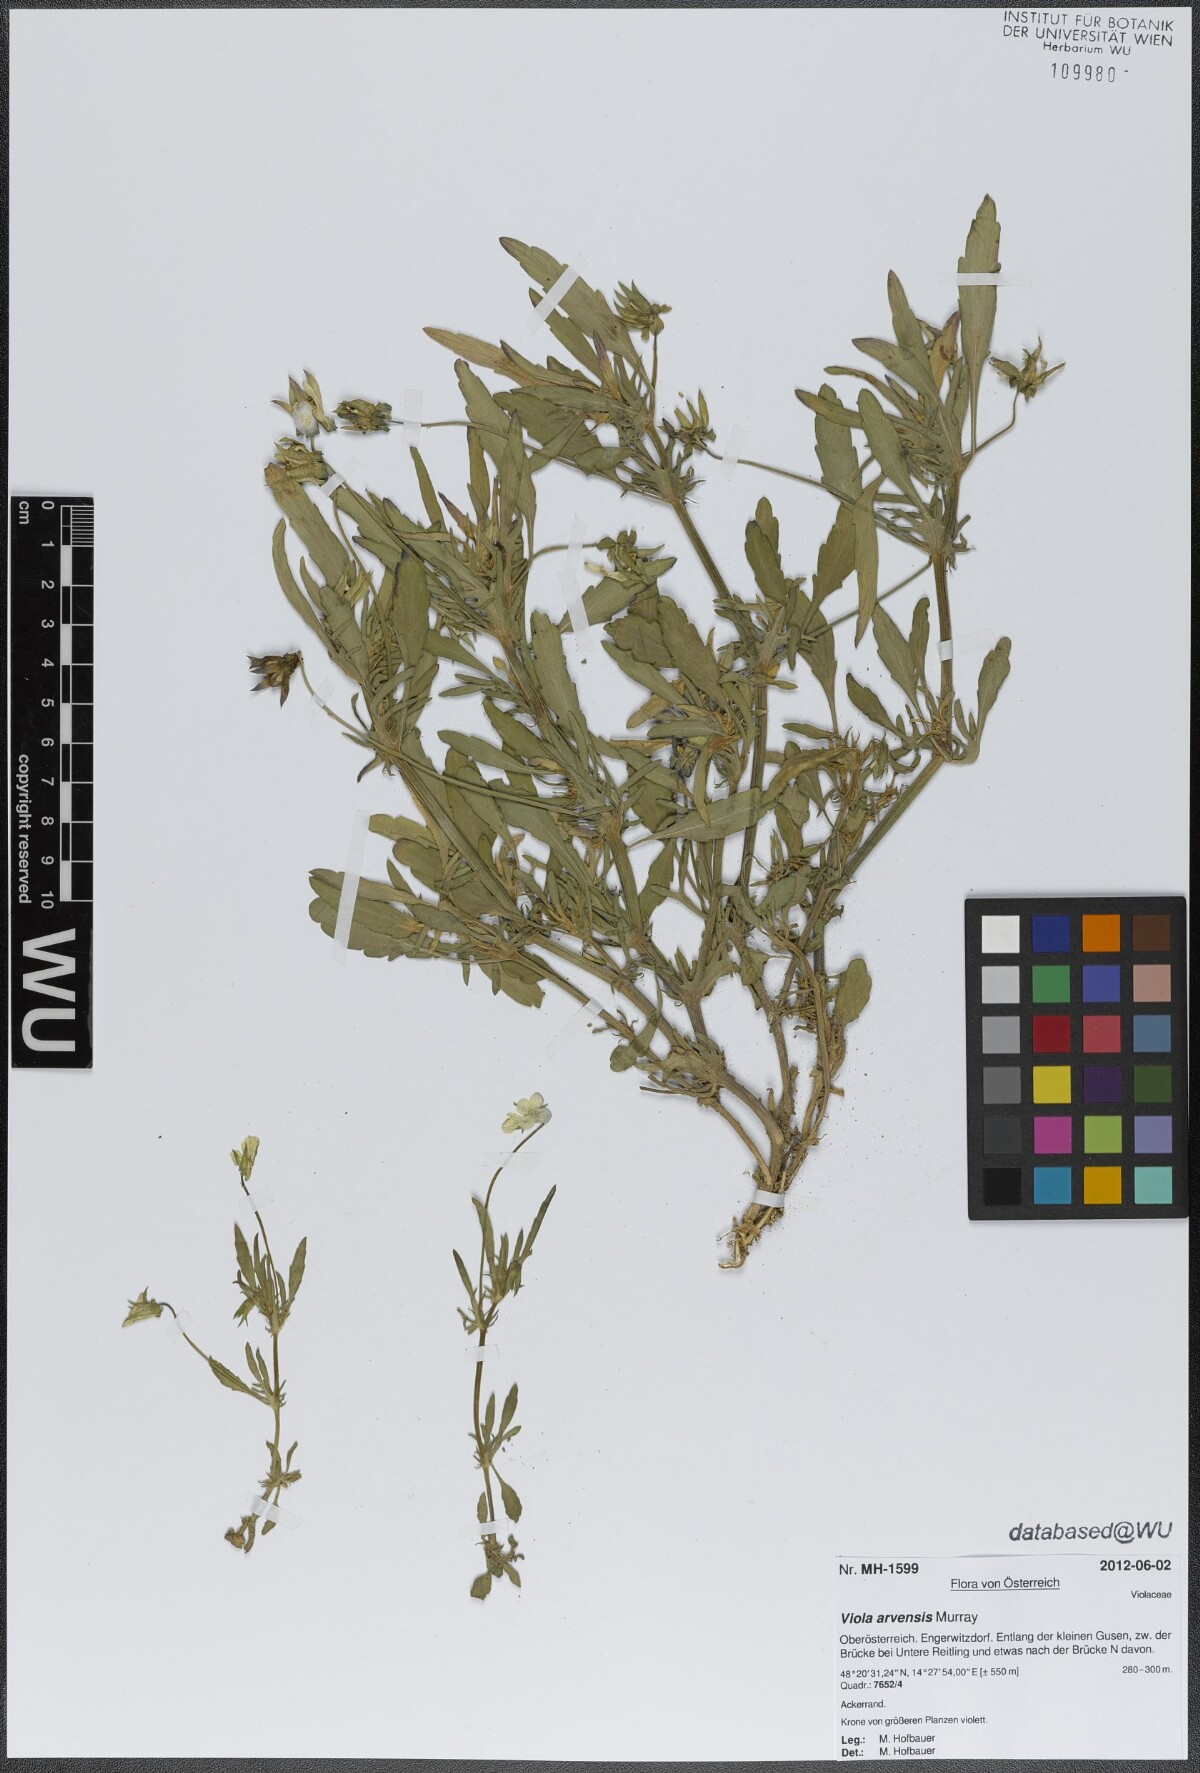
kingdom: Plantae
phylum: Tracheophyta
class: Magnoliopsida
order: Malpighiales
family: Violaceae
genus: Viola
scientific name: Viola arvensis
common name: Field pansy
